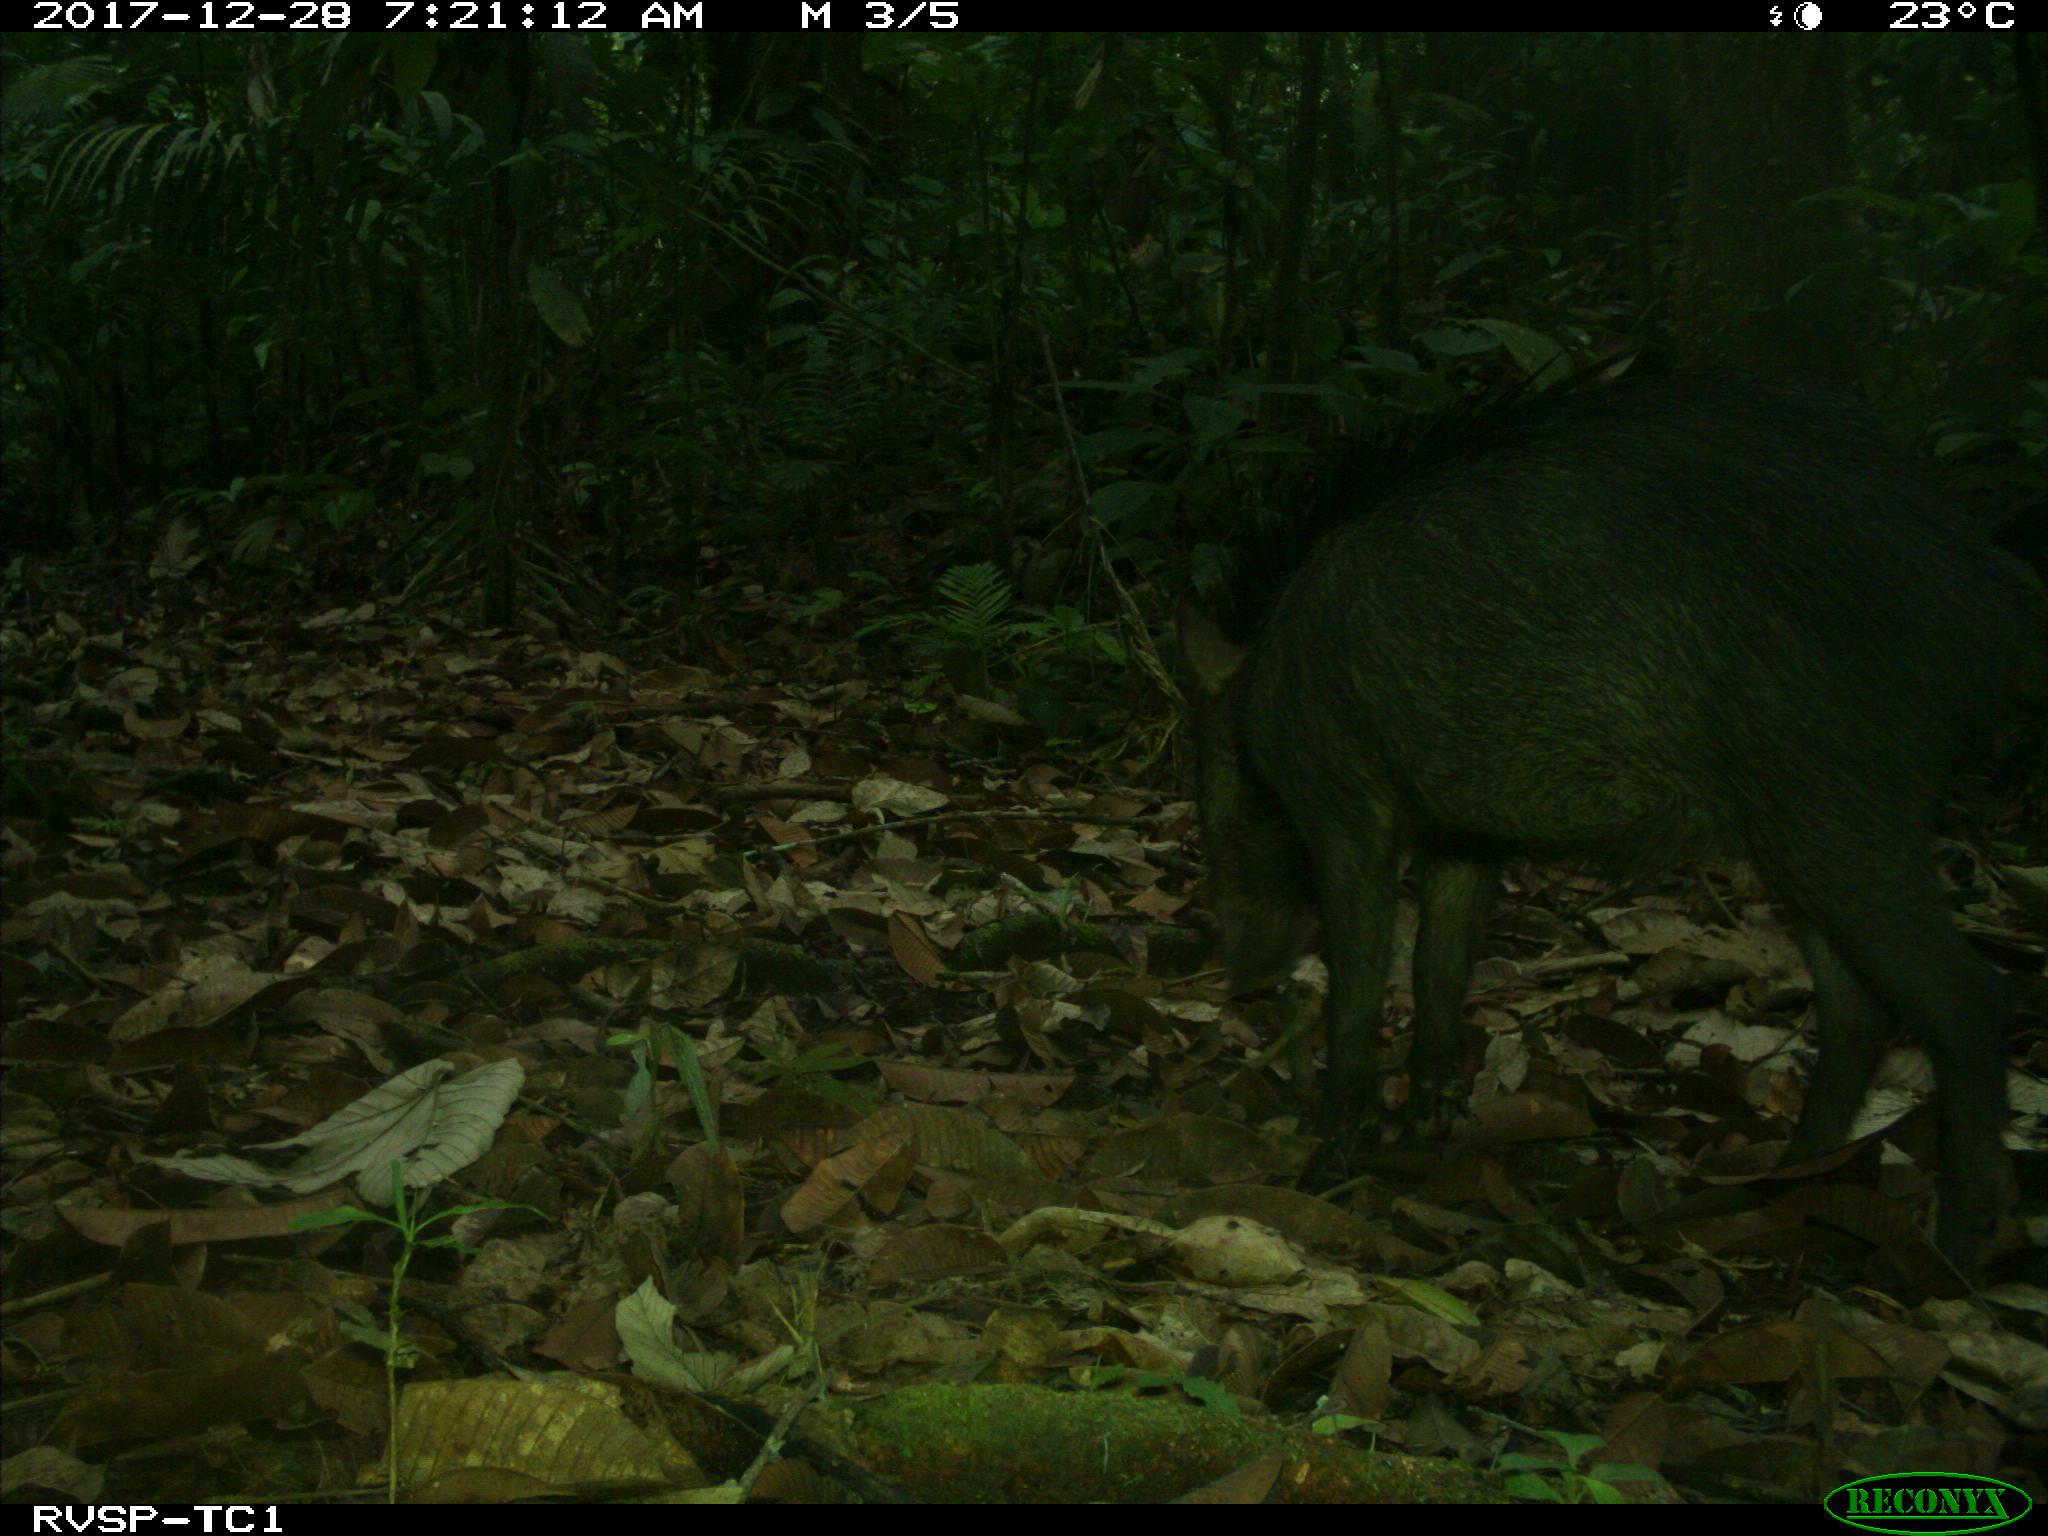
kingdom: Animalia
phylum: Chordata
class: Mammalia
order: Artiodactyla
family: Tayassuidae
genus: Tayassu
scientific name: Tayassu pecari
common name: White-lipped peccary
